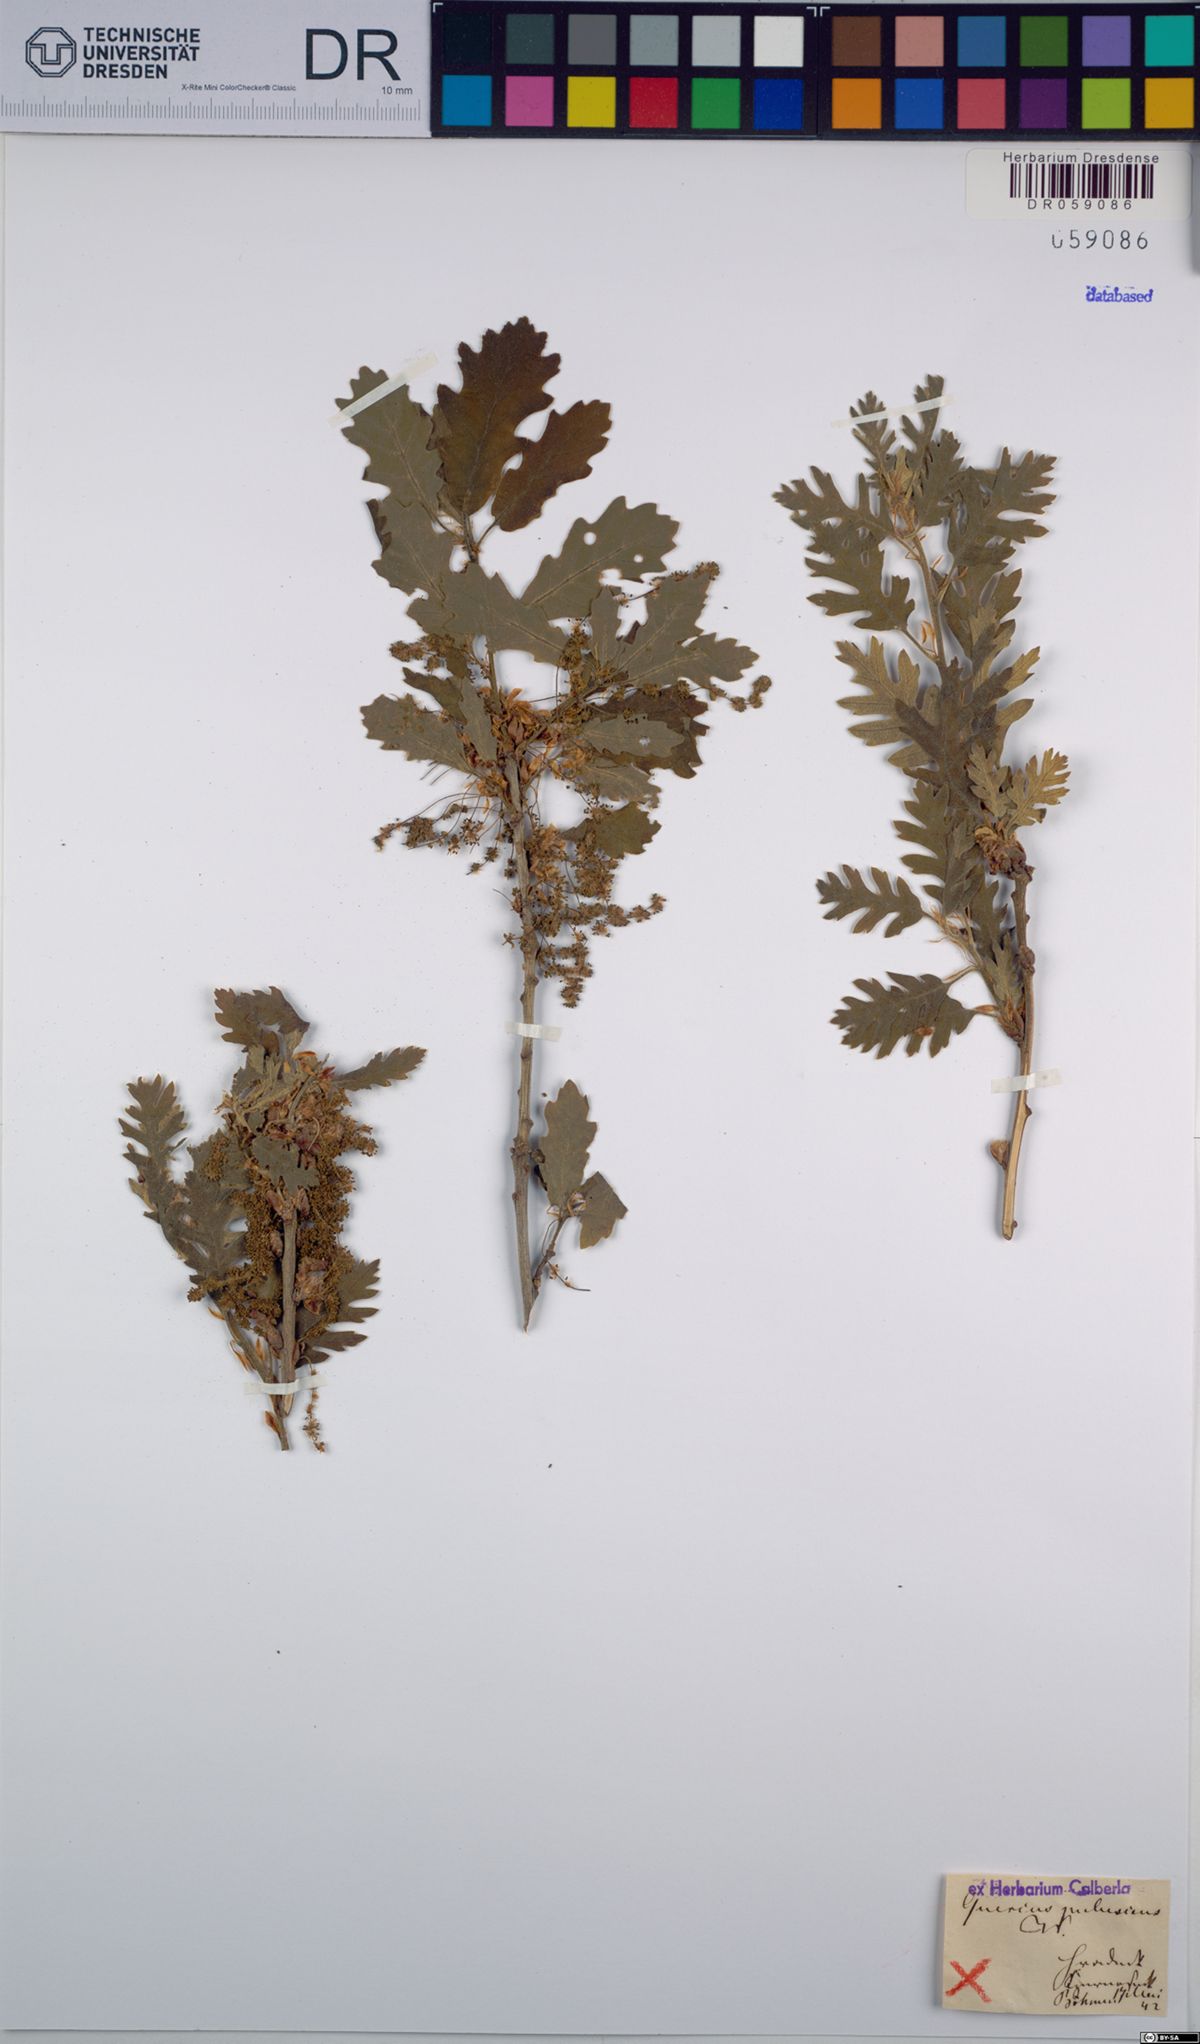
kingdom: Plantae
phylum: Tracheophyta
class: Magnoliopsida
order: Fagales
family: Fagaceae
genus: Quercus
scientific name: Quercus pubescens
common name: Downy oak
